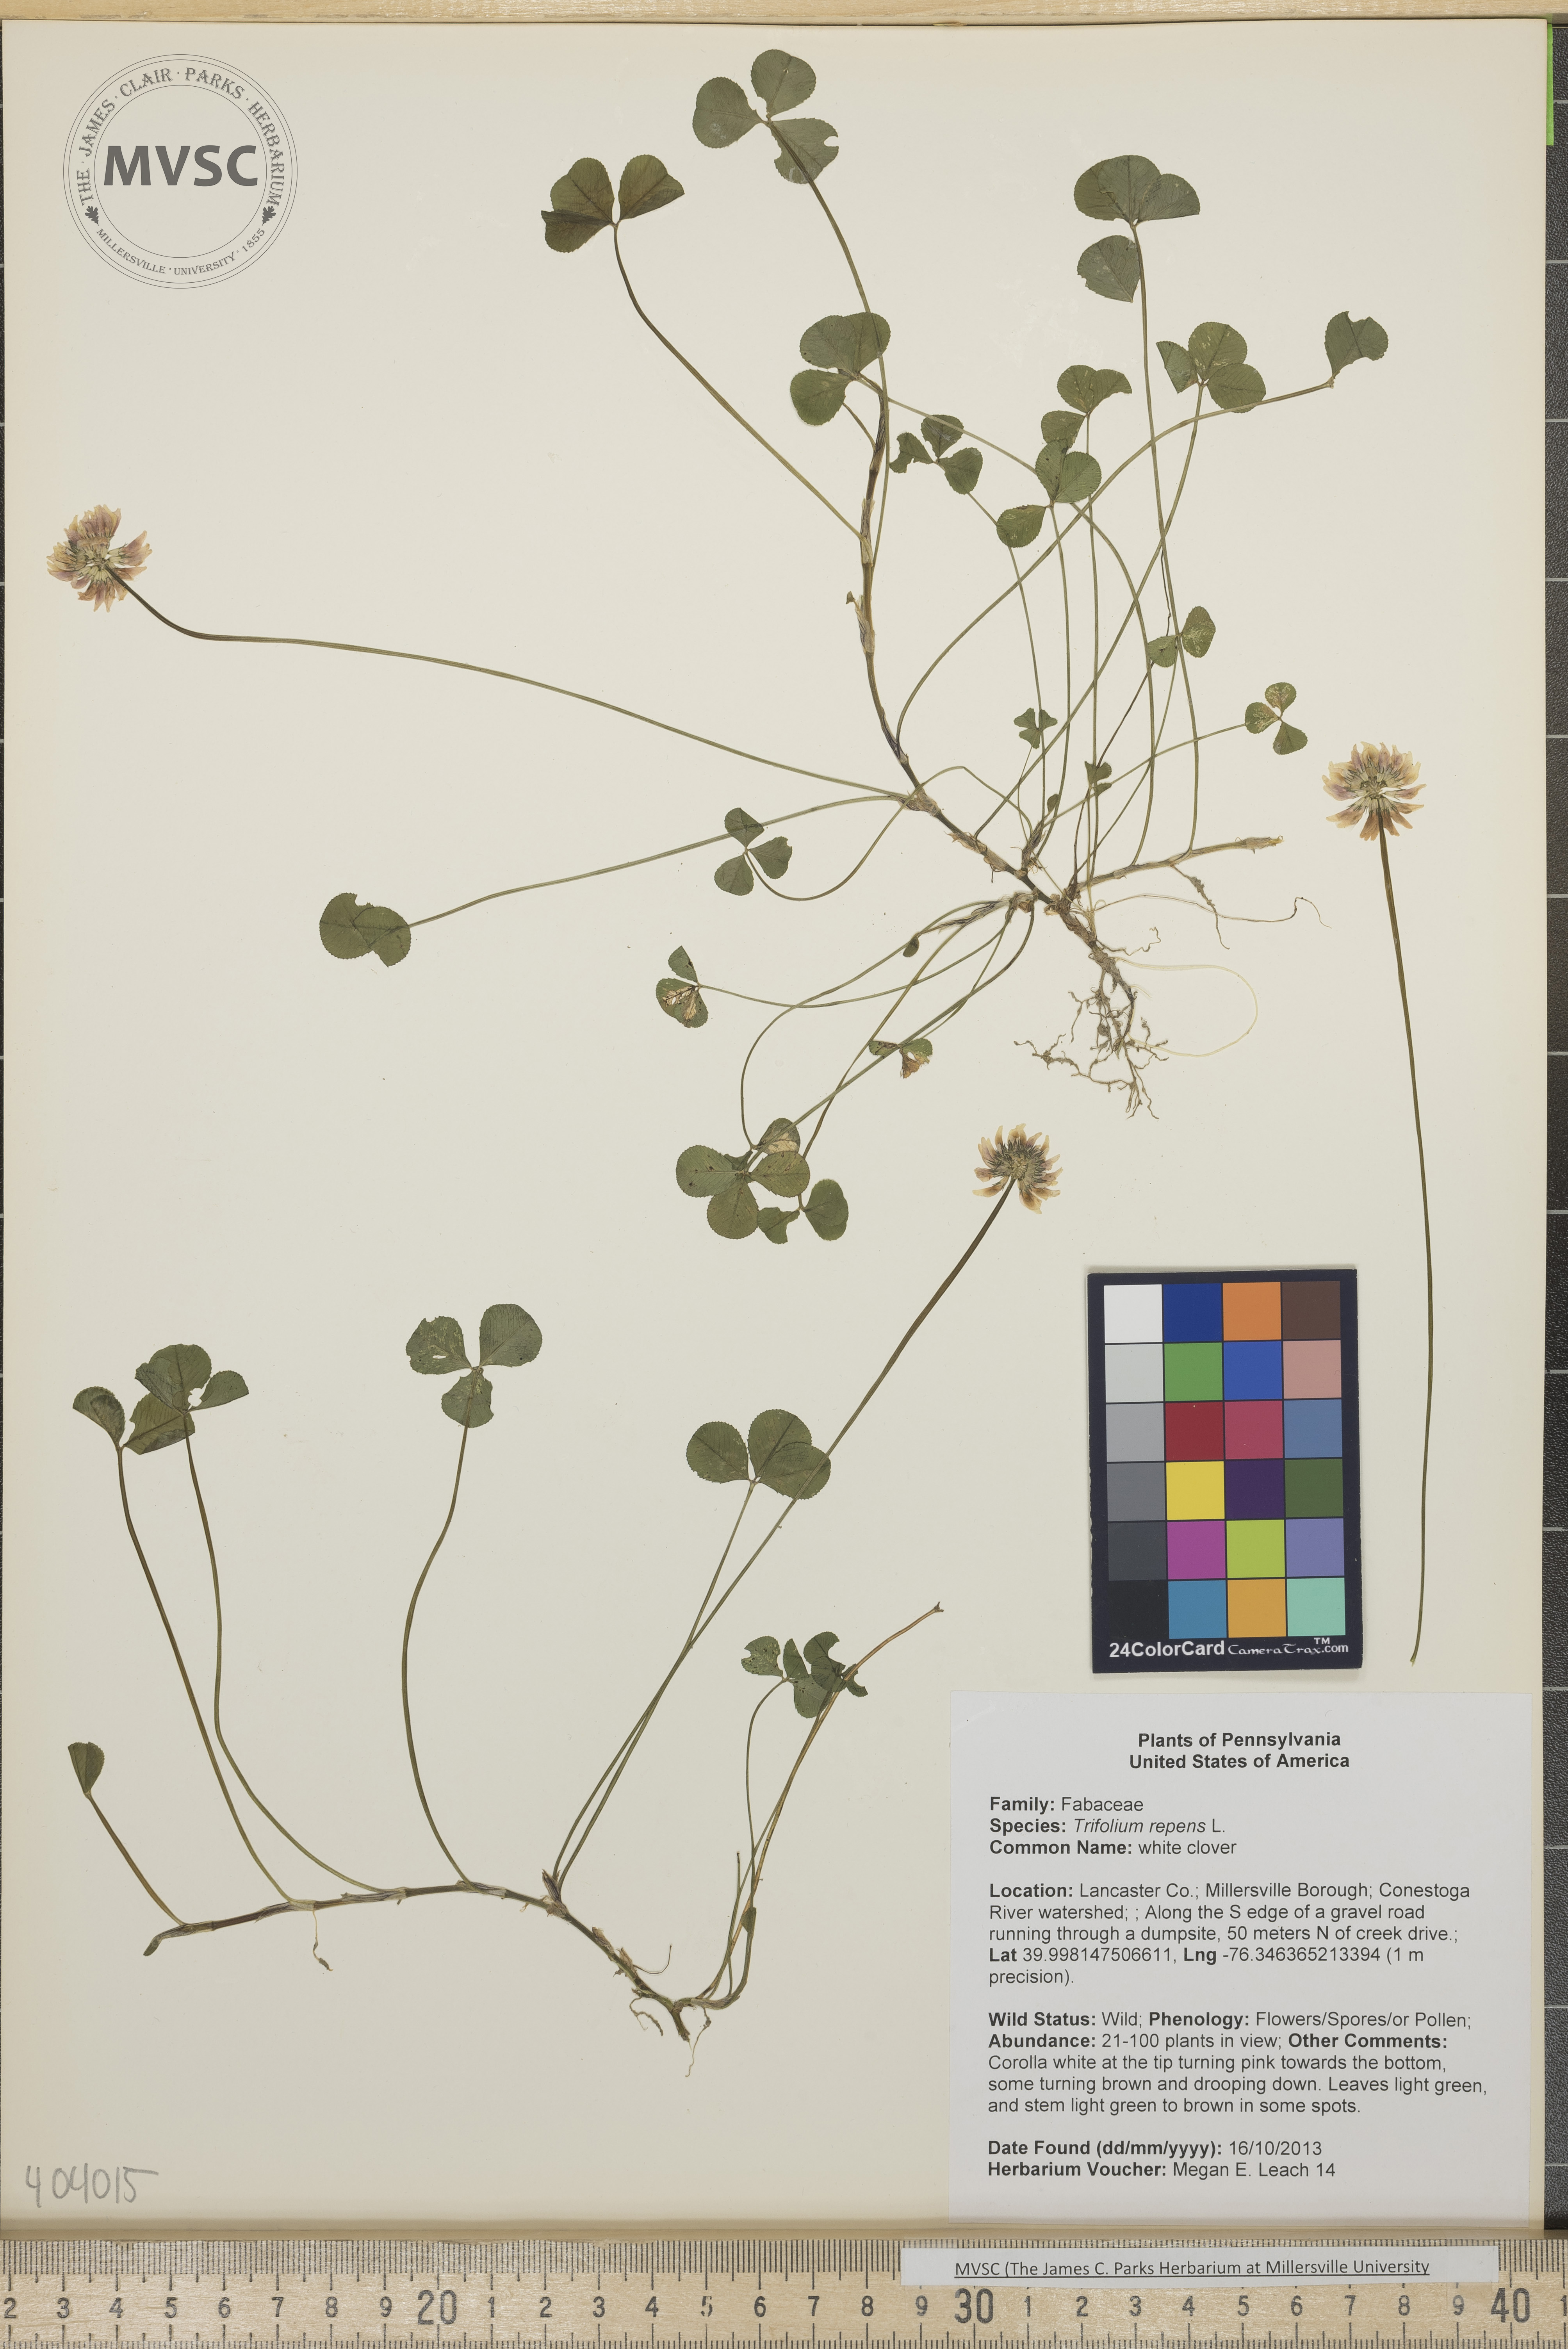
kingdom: Plantae
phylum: Tracheophyta
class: Magnoliopsida
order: Fabales
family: Fabaceae
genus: Trifolium
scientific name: Trifolium repens
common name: white clover
